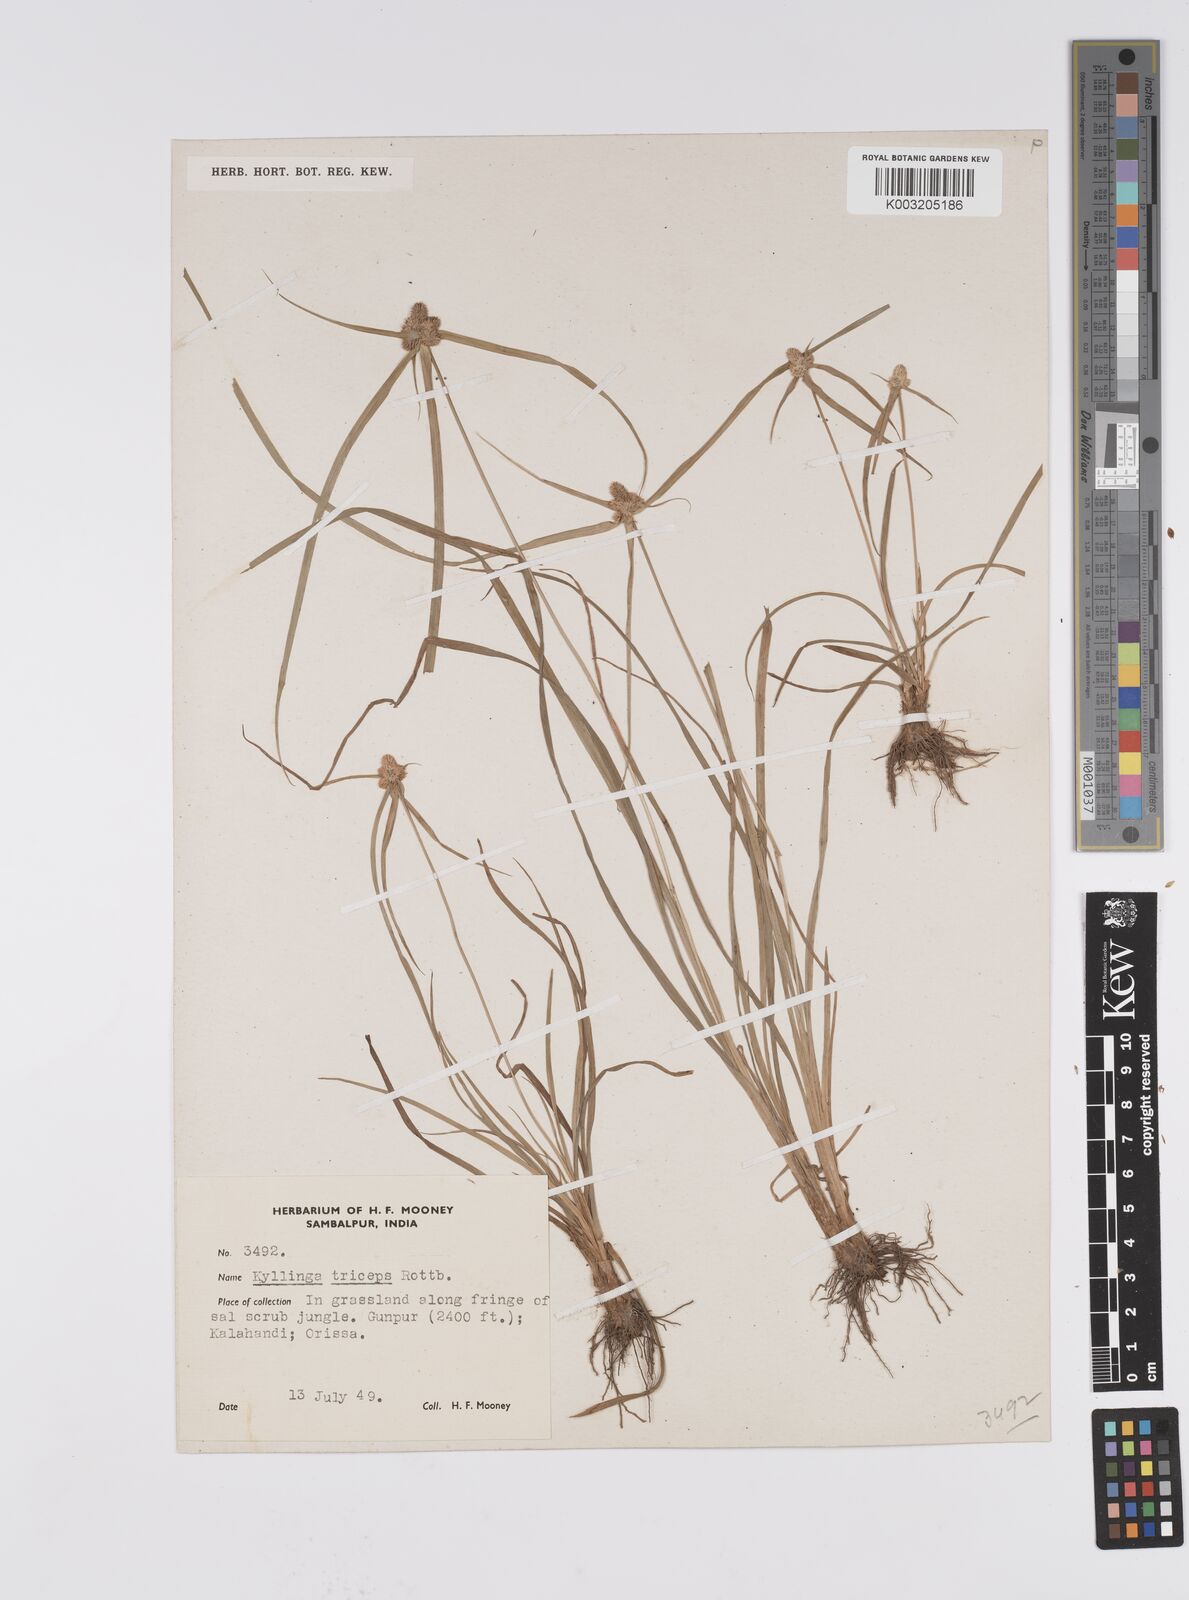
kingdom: Plantae
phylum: Tracheophyta
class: Liliopsida
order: Poales
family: Cyperaceae
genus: Cyperus
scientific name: Cyperus
